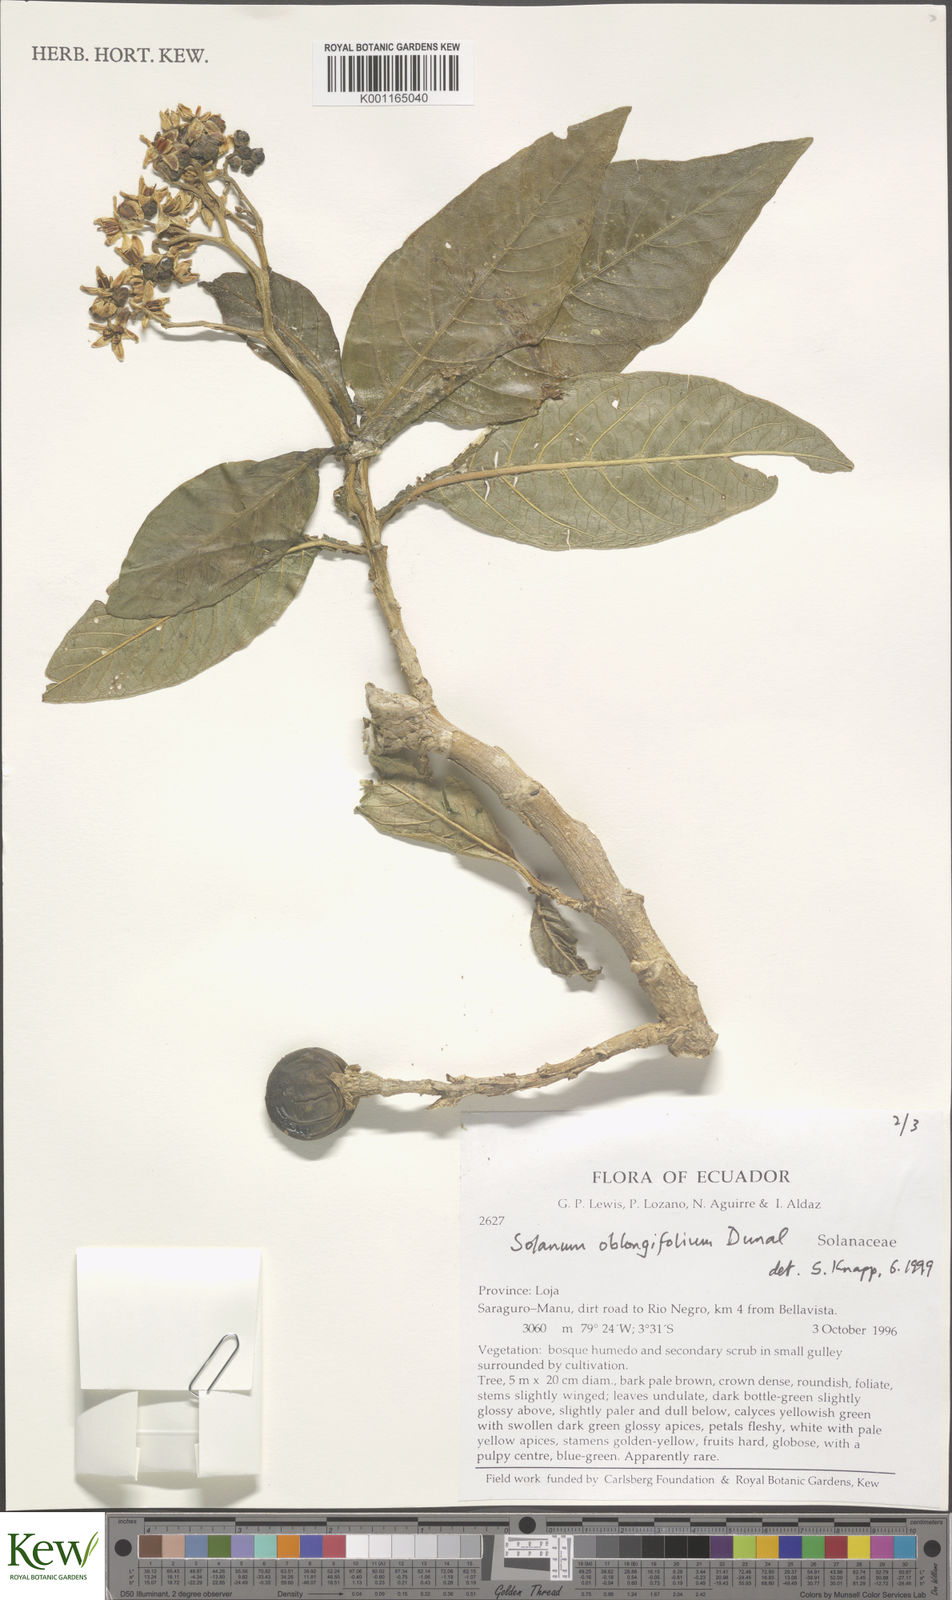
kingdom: Plantae
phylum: Tracheophyta
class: Magnoliopsida
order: Solanales
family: Solanaceae
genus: Solanum
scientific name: Solanum oblongifolium
